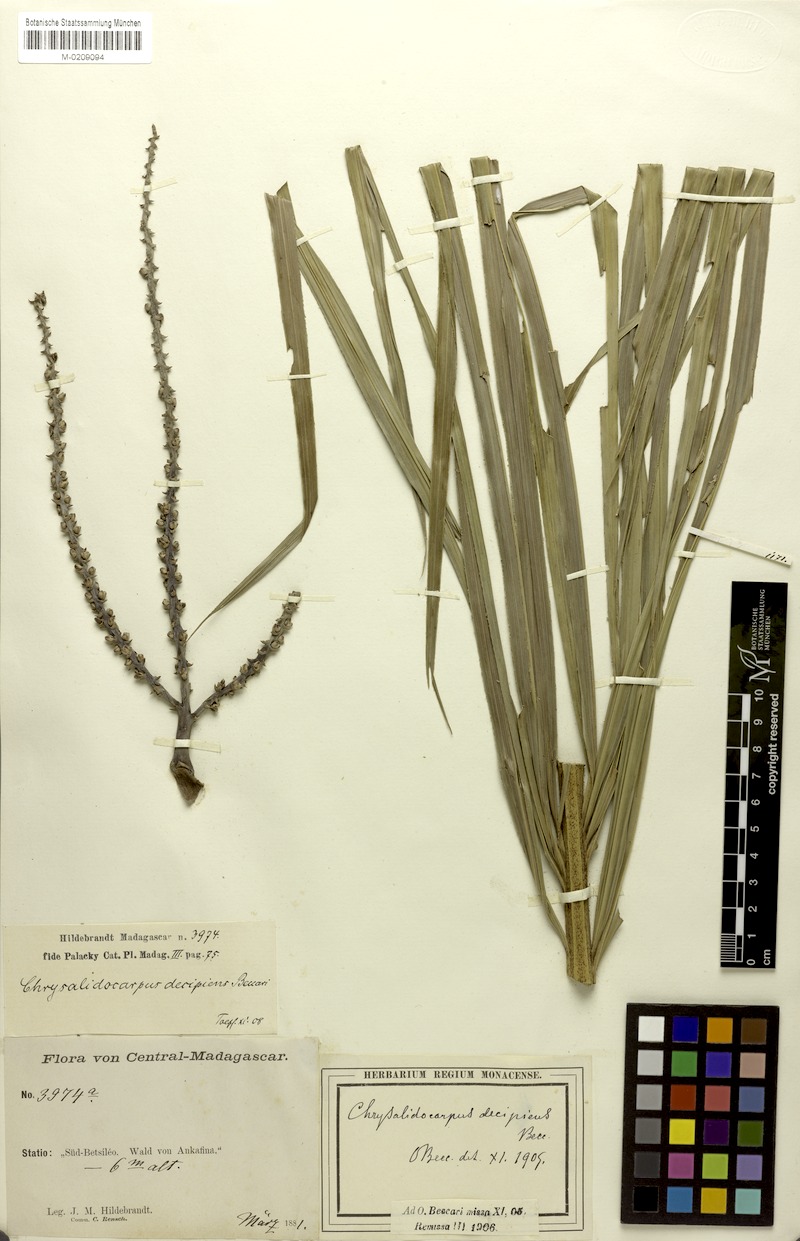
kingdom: Plantae
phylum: Tracheophyta
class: Liliopsida
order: Arecales
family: Arecaceae
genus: Dypsis
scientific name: Dypsis decipiens
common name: Manambe palm
